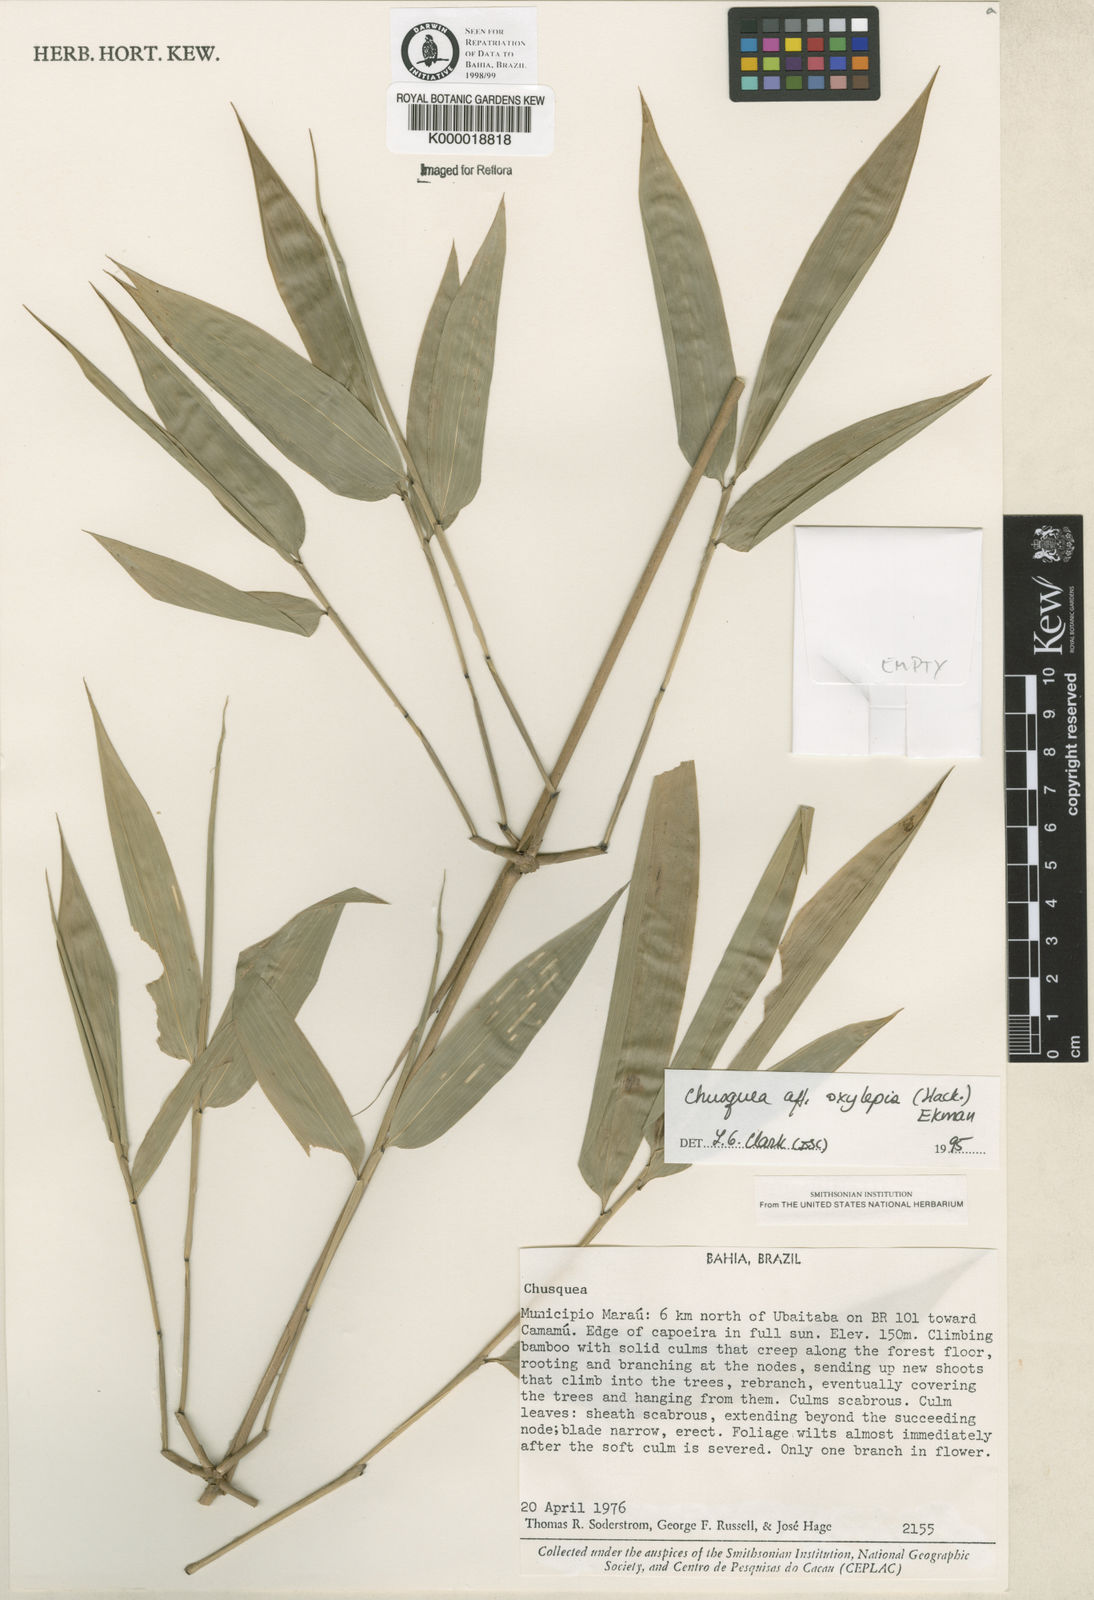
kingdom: Plantae
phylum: Tracheophyta
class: Liliopsida
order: Poales
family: Poaceae
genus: Chusquea
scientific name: Chusquea oxylepis
